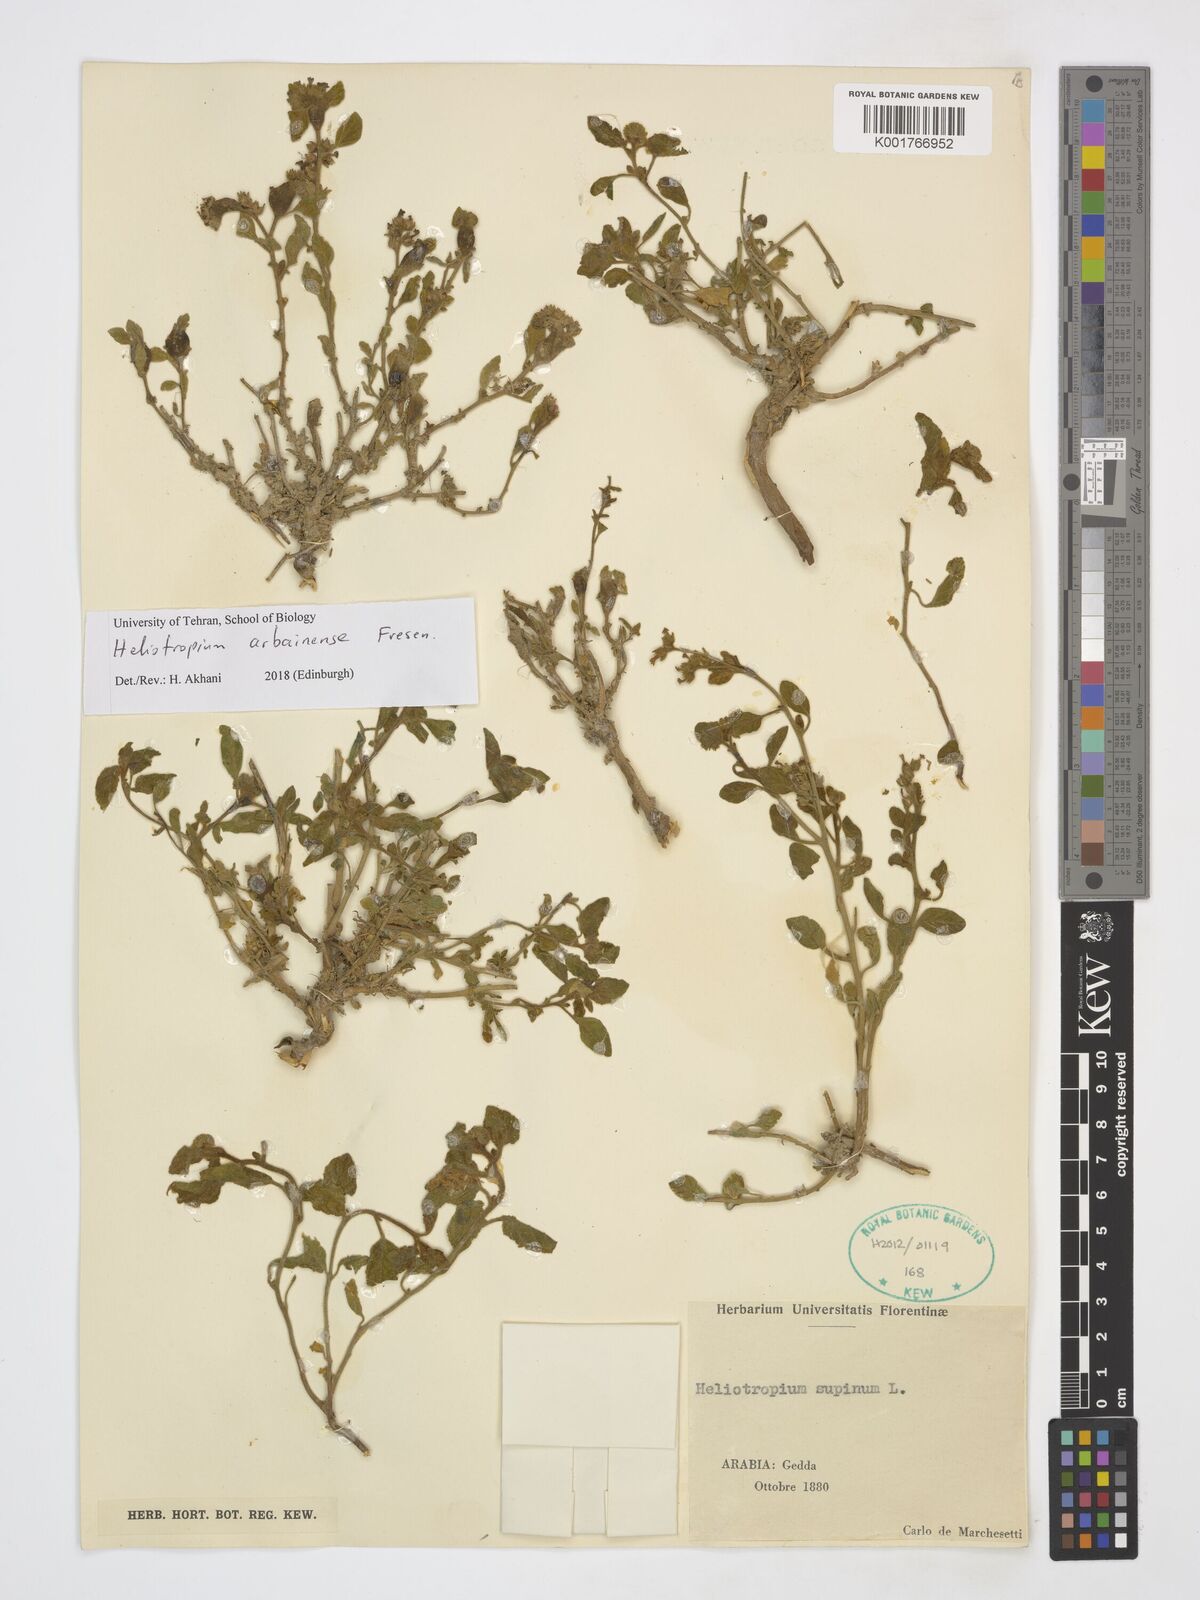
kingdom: Plantae
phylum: Tracheophyta
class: Magnoliopsida
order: Boraginales
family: Heliotropiaceae
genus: Heliotropium
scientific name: Heliotropium arbainense
